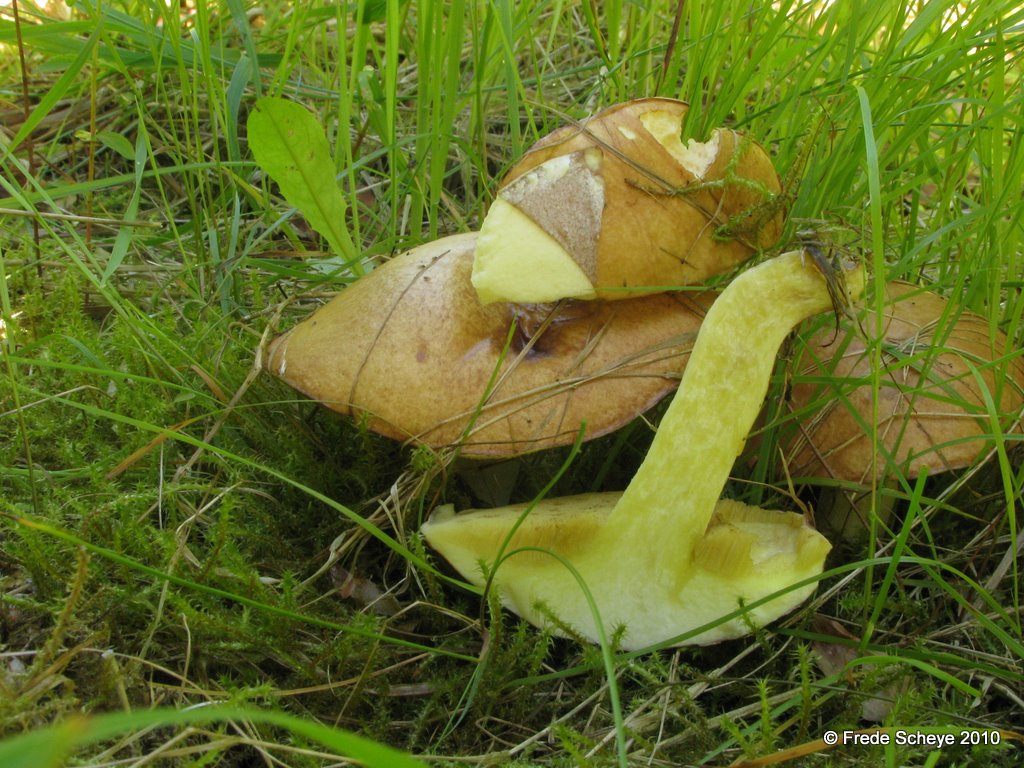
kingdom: Fungi
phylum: Basidiomycota
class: Agaricomycetes
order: Boletales
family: Suillaceae
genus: Suillus
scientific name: Suillus granulatus
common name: kornet slimrørhat
